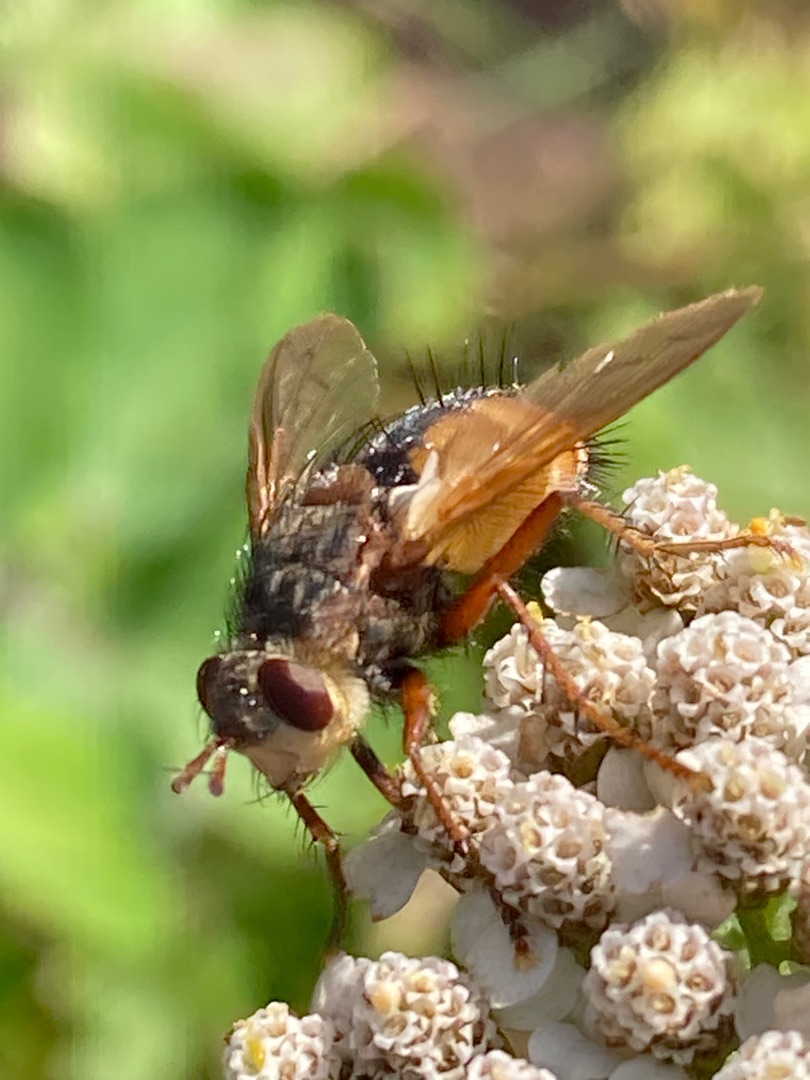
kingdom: Animalia
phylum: Arthropoda
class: Insecta
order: Diptera
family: Tachinidae
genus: Tachina
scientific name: Tachina fera
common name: Mellemfluen oskar
